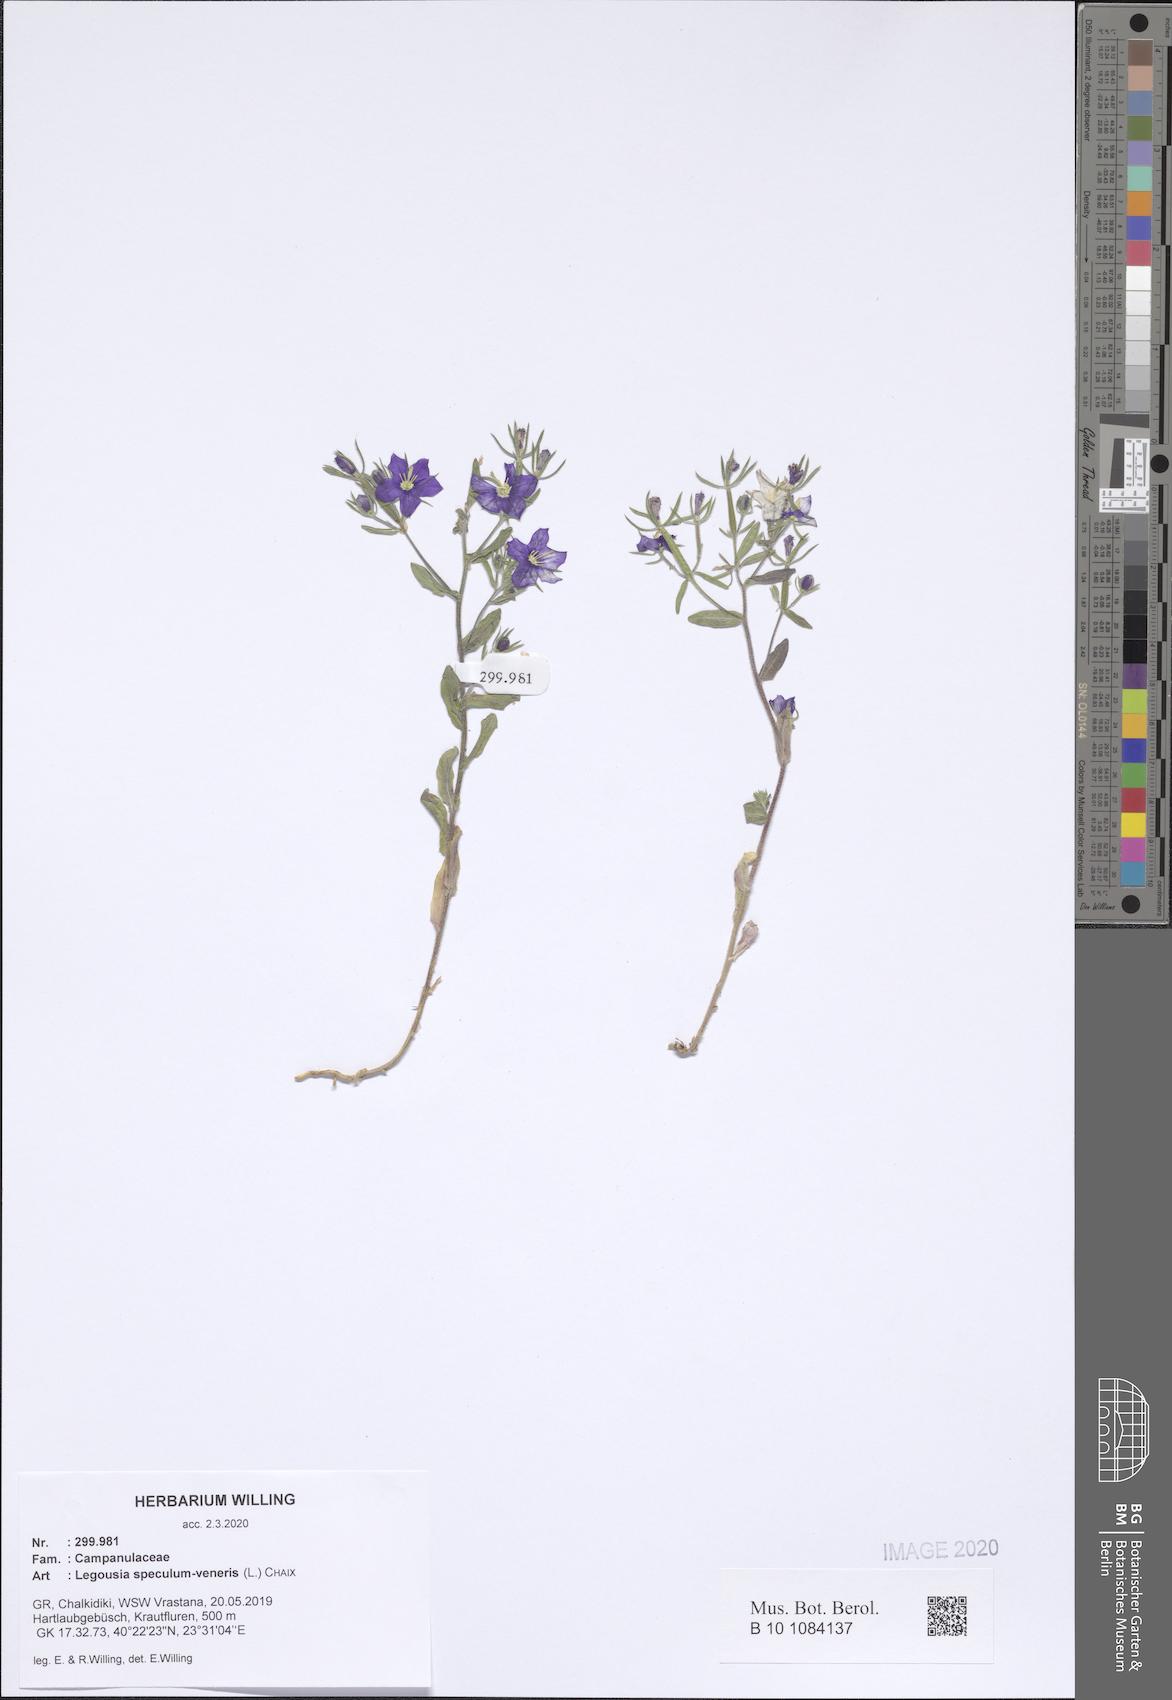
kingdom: Plantae
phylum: Tracheophyta
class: Magnoliopsida
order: Asterales
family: Campanulaceae
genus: Legousia
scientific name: Legousia speculum-veneris
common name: Large venus's-looking-glass
